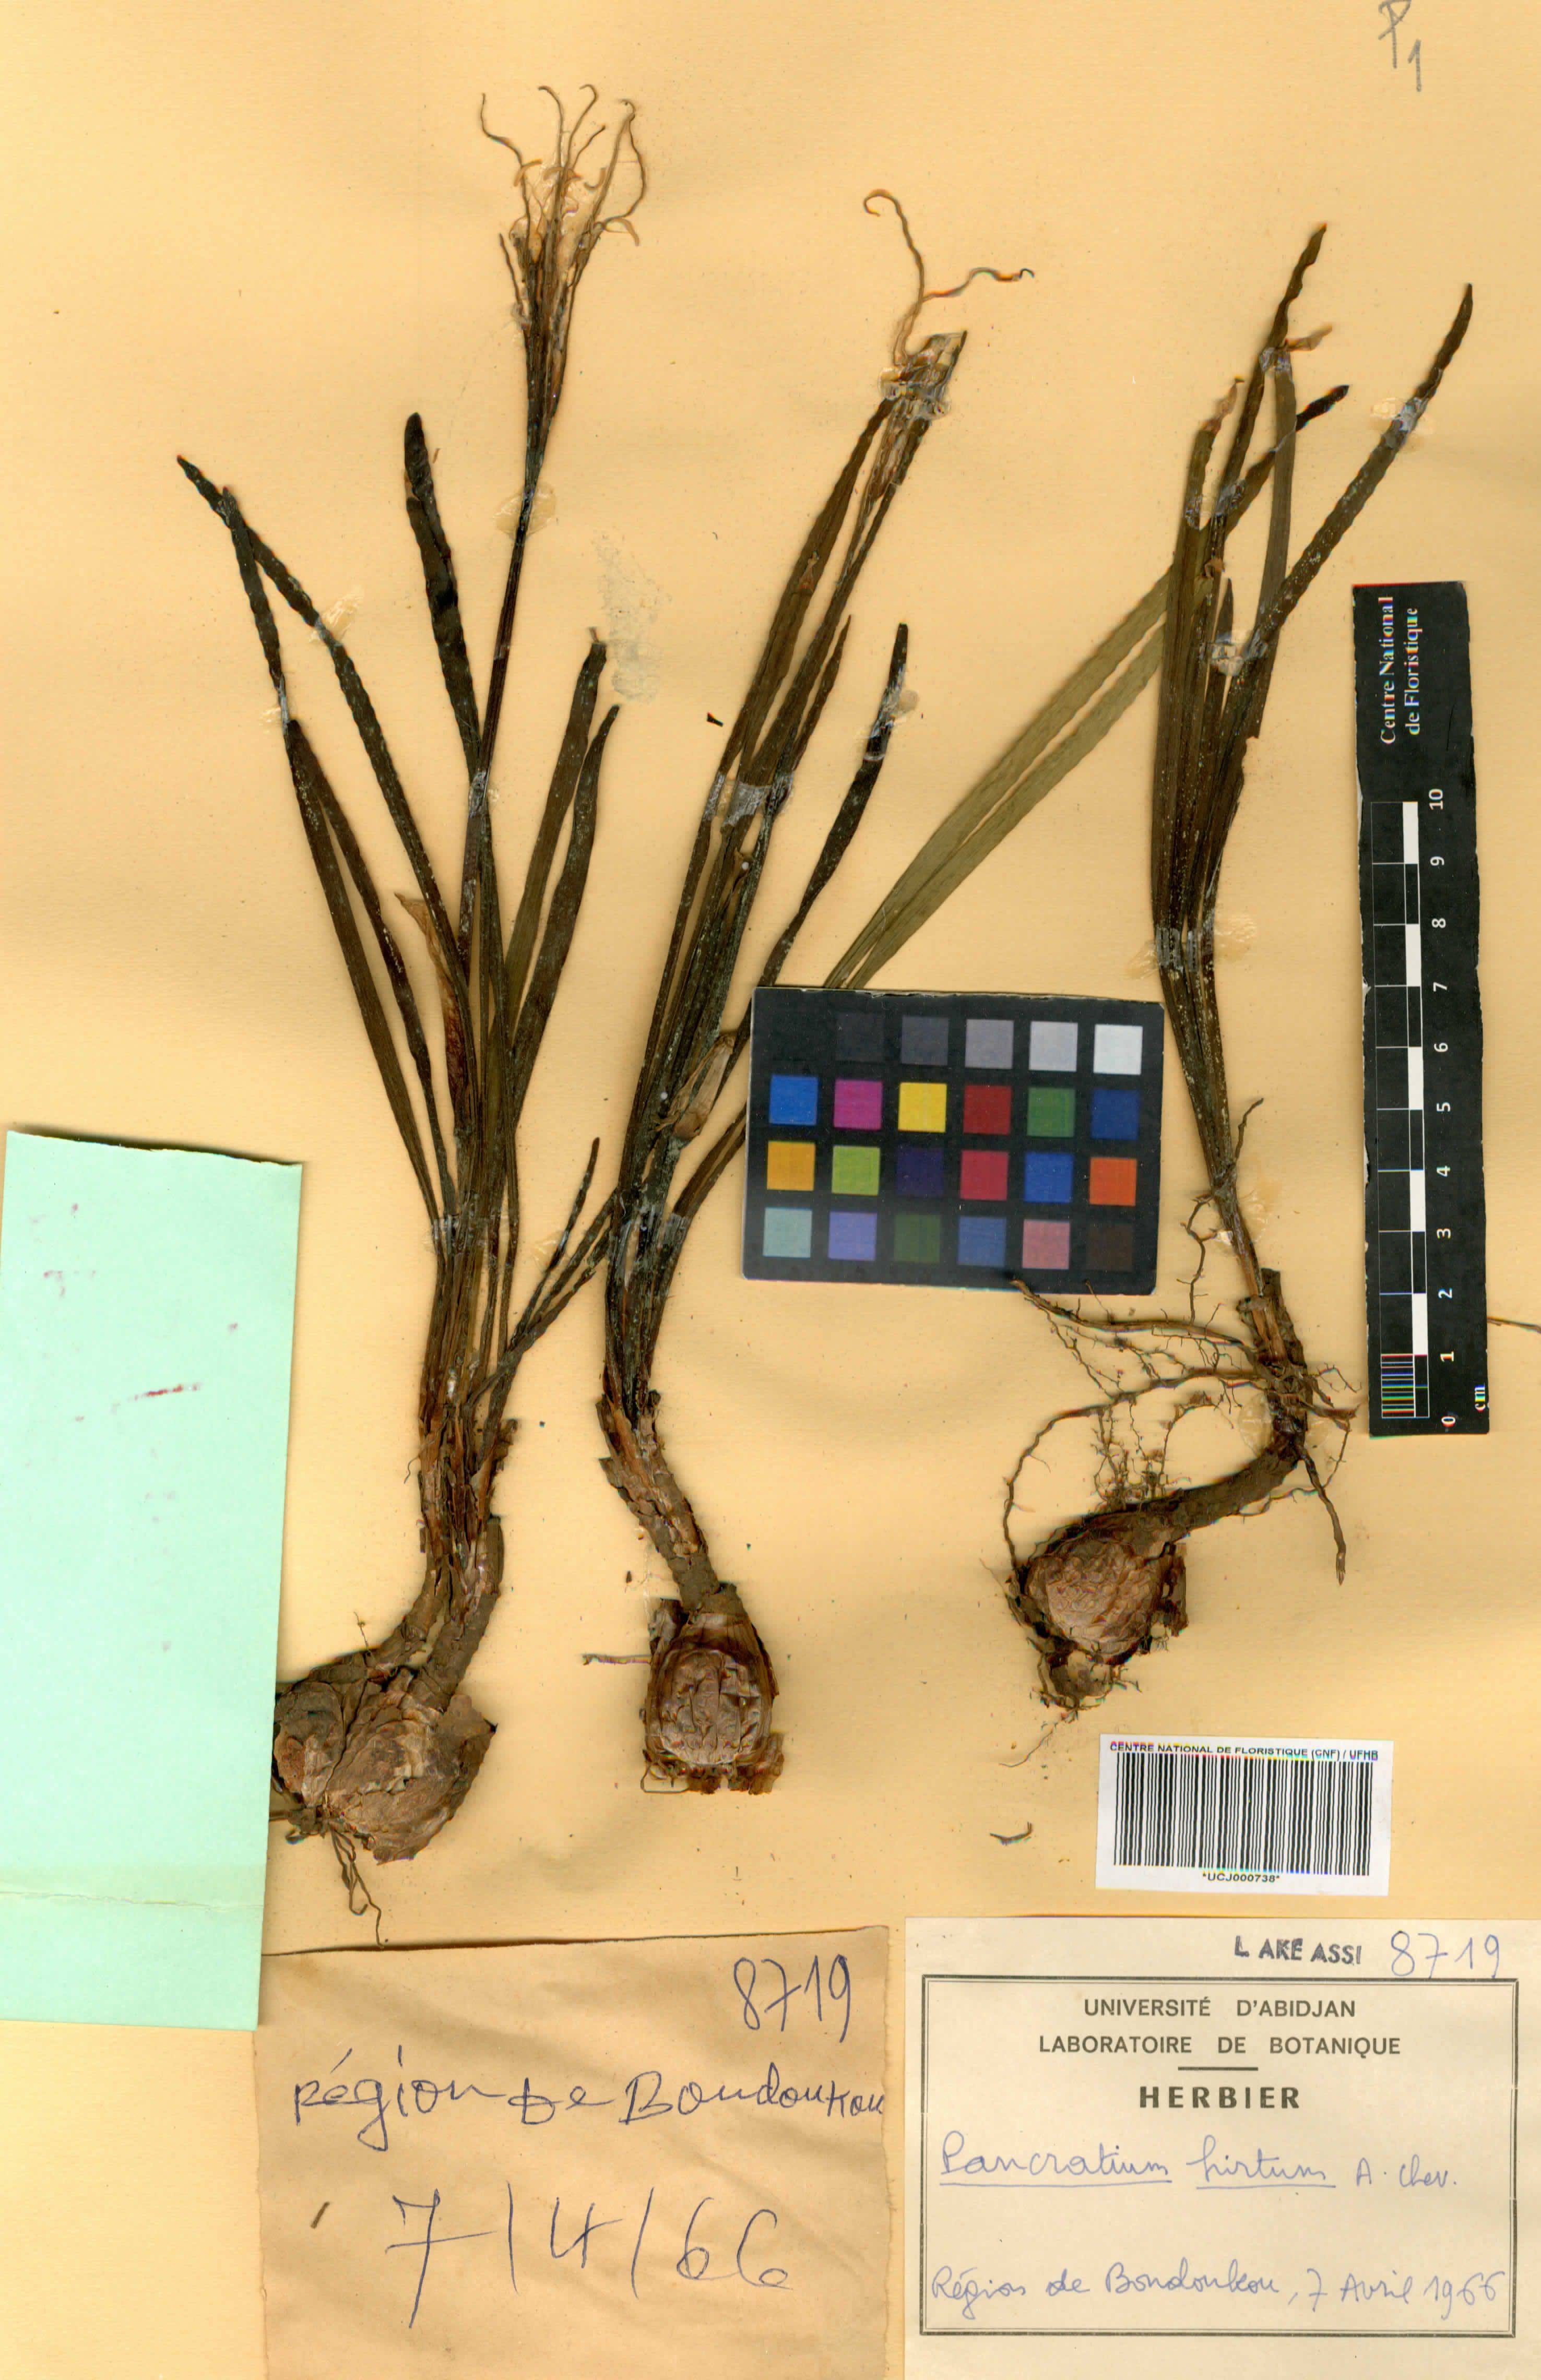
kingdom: Plantae
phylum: Tracheophyta
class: Liliopsida
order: Asparagales
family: Amaryllidaceae
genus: Pancratium
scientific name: Pancratium tenuifolium
